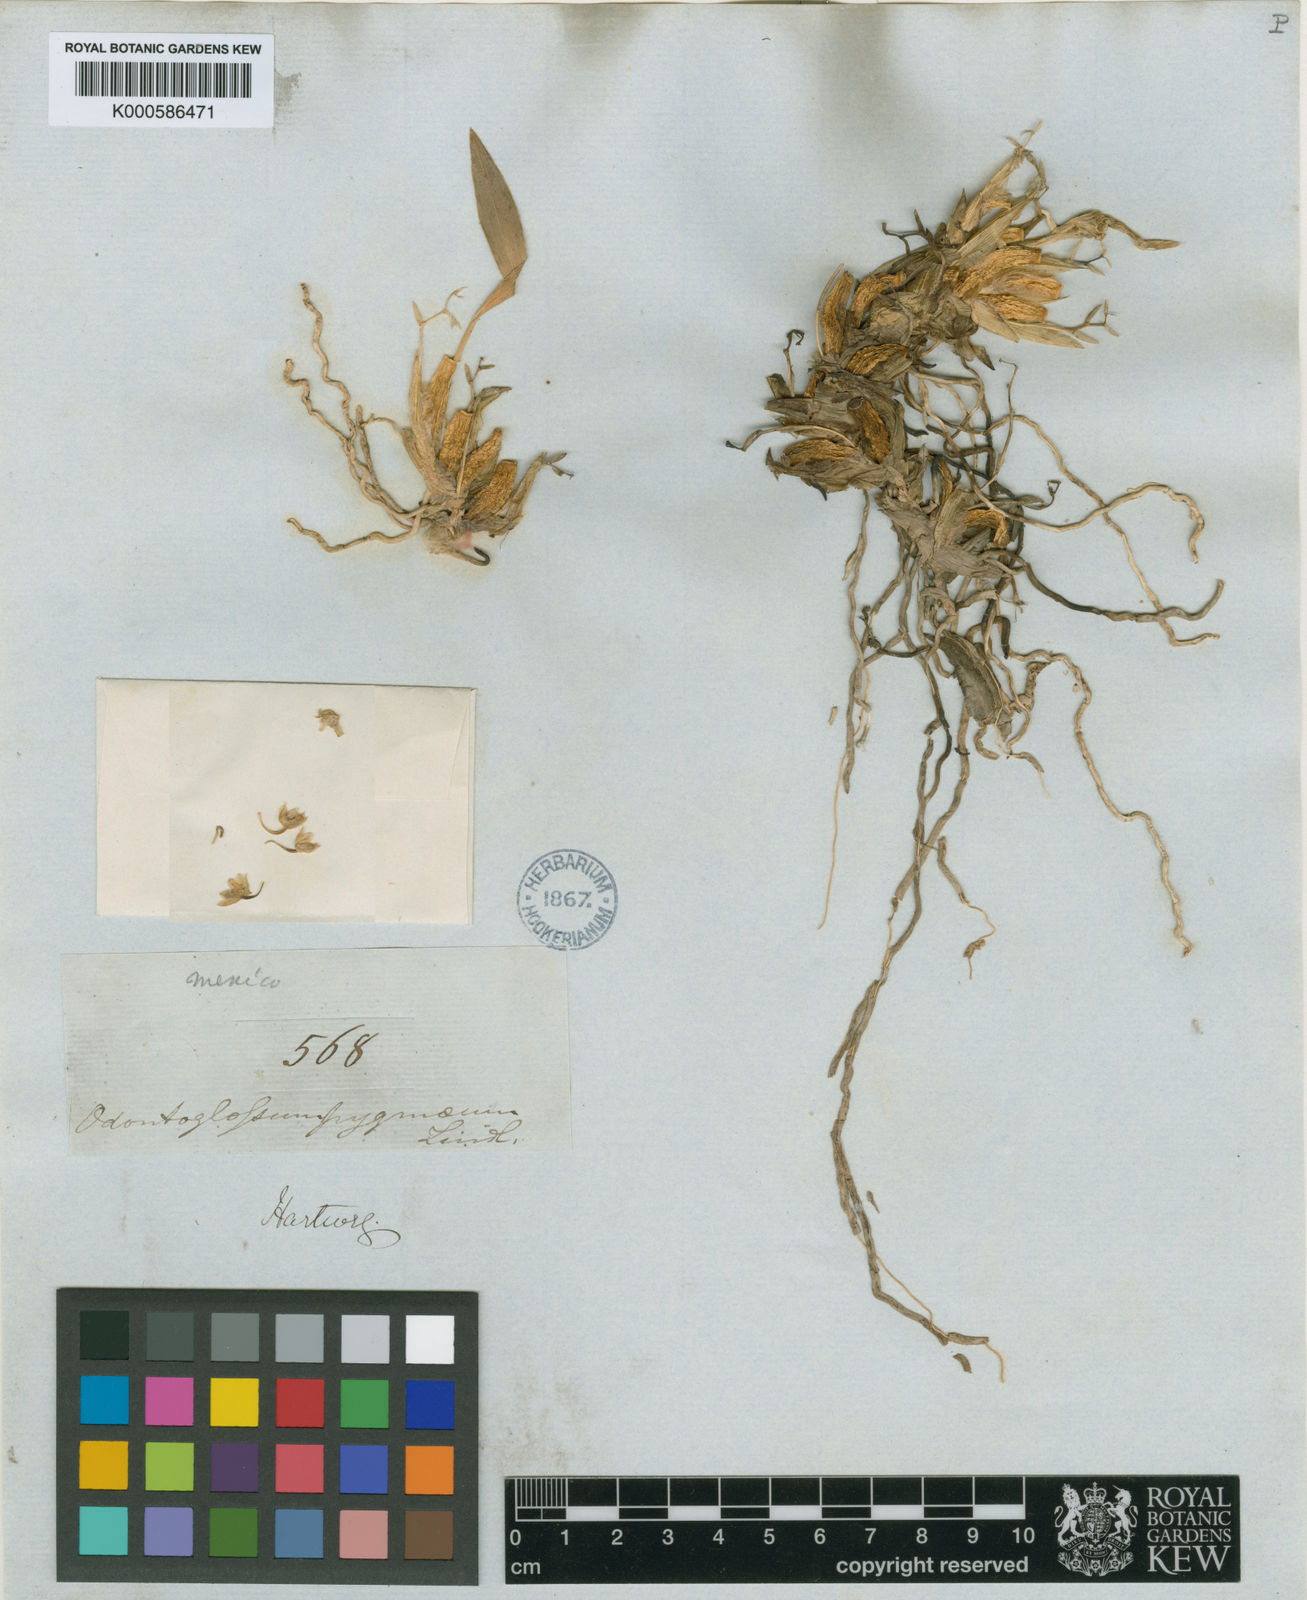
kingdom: Plantae
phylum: Tracheophyta
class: Liliopsida
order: Asparagales
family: Orchidaceae
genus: Rhynchostele
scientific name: Rhynchostele pygmaea
